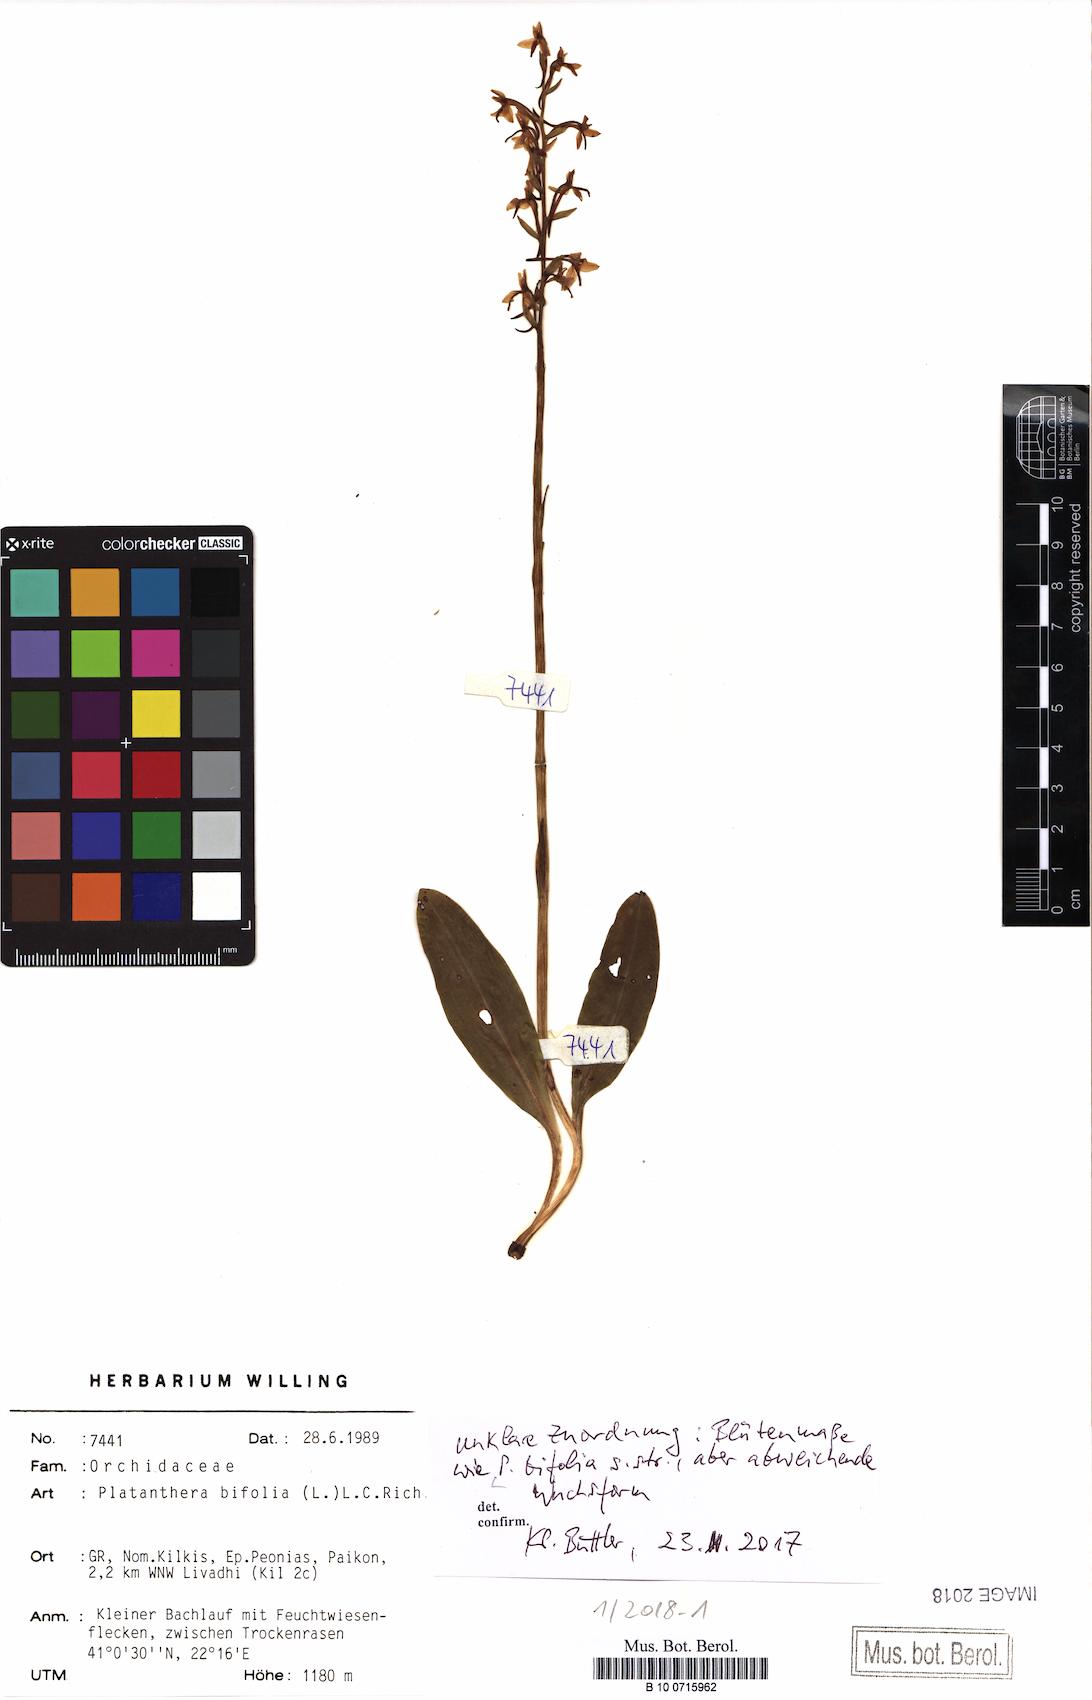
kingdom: Plantae
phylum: Tracheophyta
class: Liliopsida
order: Asparagales
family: Orchidaceae
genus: Platanthera
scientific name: Platanthera bifolia
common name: Lesser butterfly-orchid
